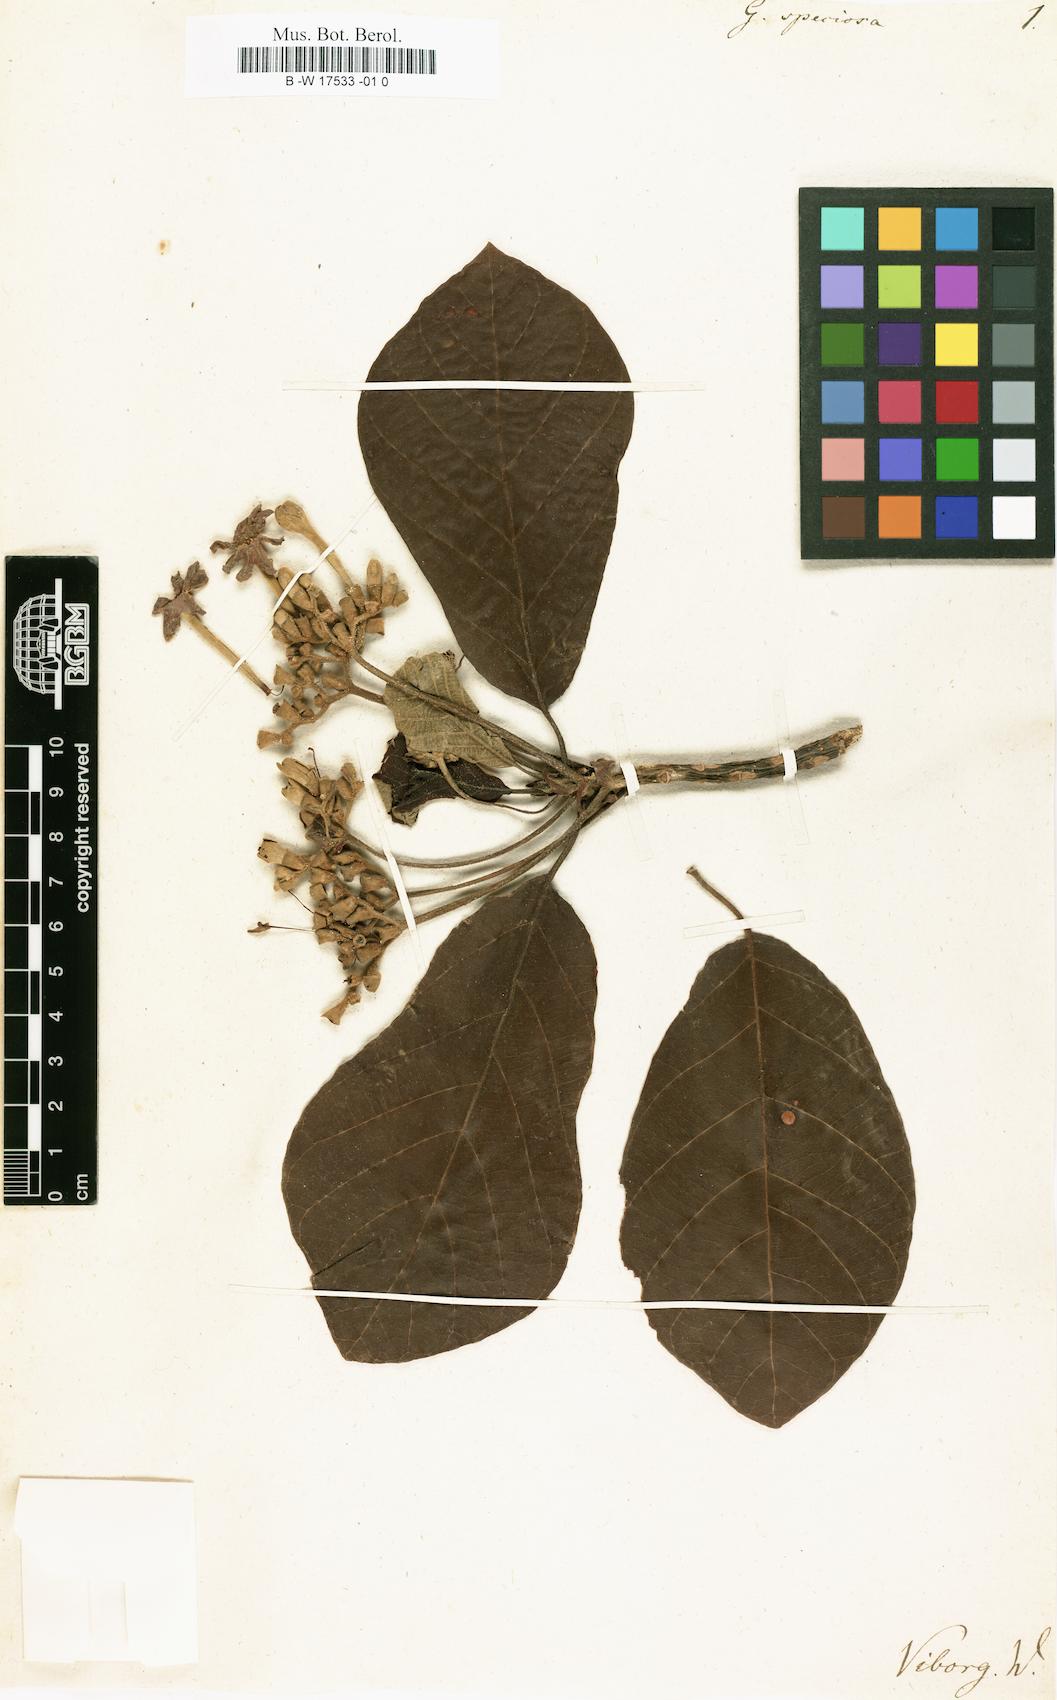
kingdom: Plantae
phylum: Tracheophyta
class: Magnoliopsida
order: Gentianales
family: Rubiaceae
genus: Guettarda
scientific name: Guettarda speciosa
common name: Sea randa
